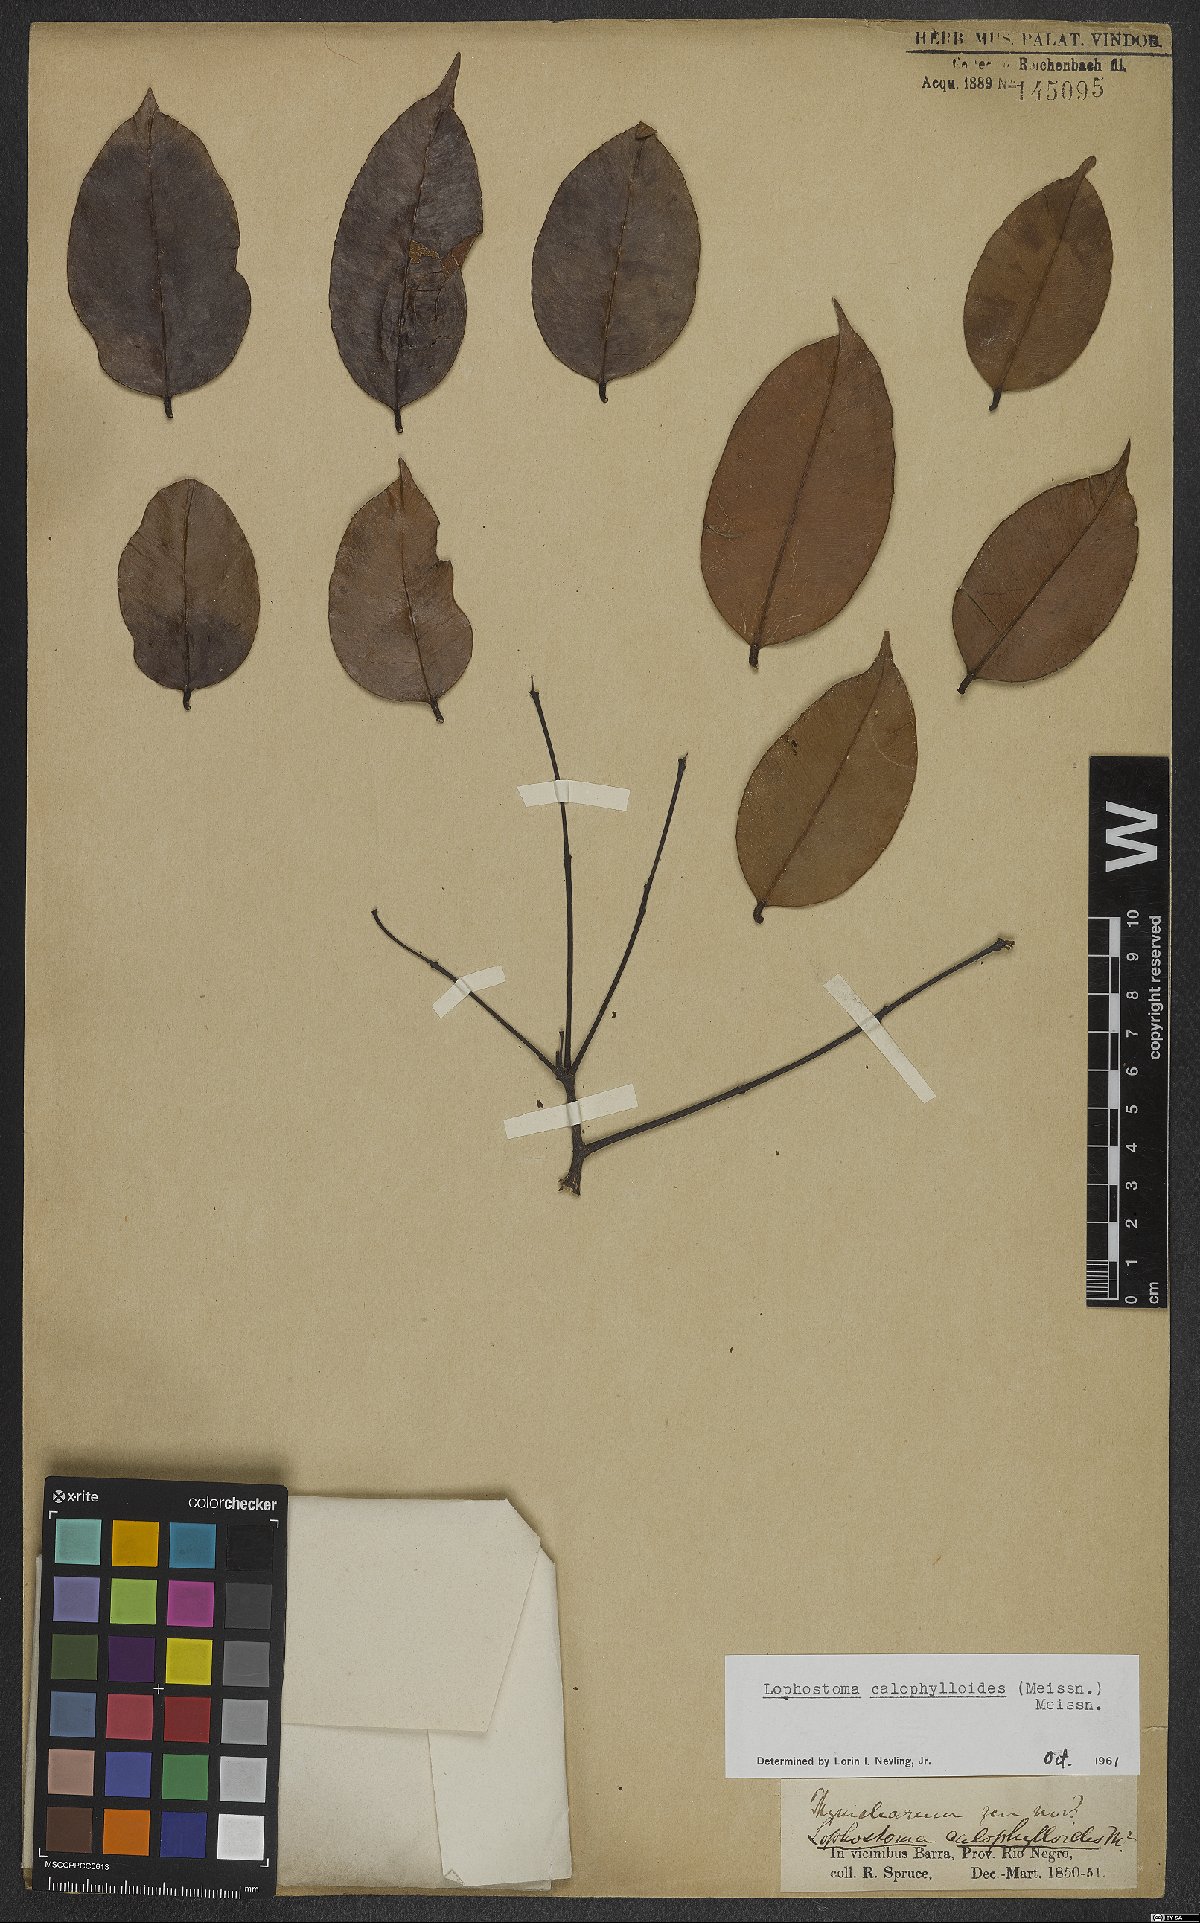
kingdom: Plantae
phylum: Tracheophyta
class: Magnoliopsida
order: Malvales
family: Thymelaeaceae
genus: Lophostoma
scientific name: Lophostoma calophylloides
